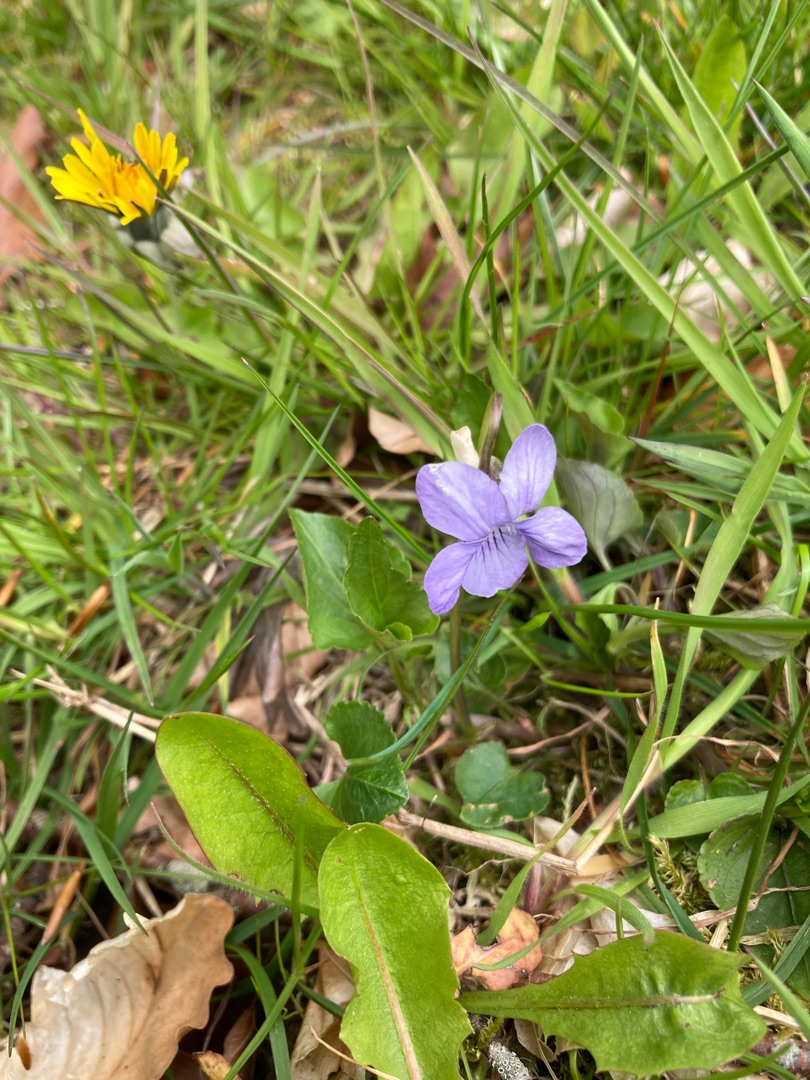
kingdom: Plantae
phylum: Tracheophyta
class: Magnoliopsida
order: Malpighiales
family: Violaceae
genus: Viola
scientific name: Viola riviniana
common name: Krat-viol
